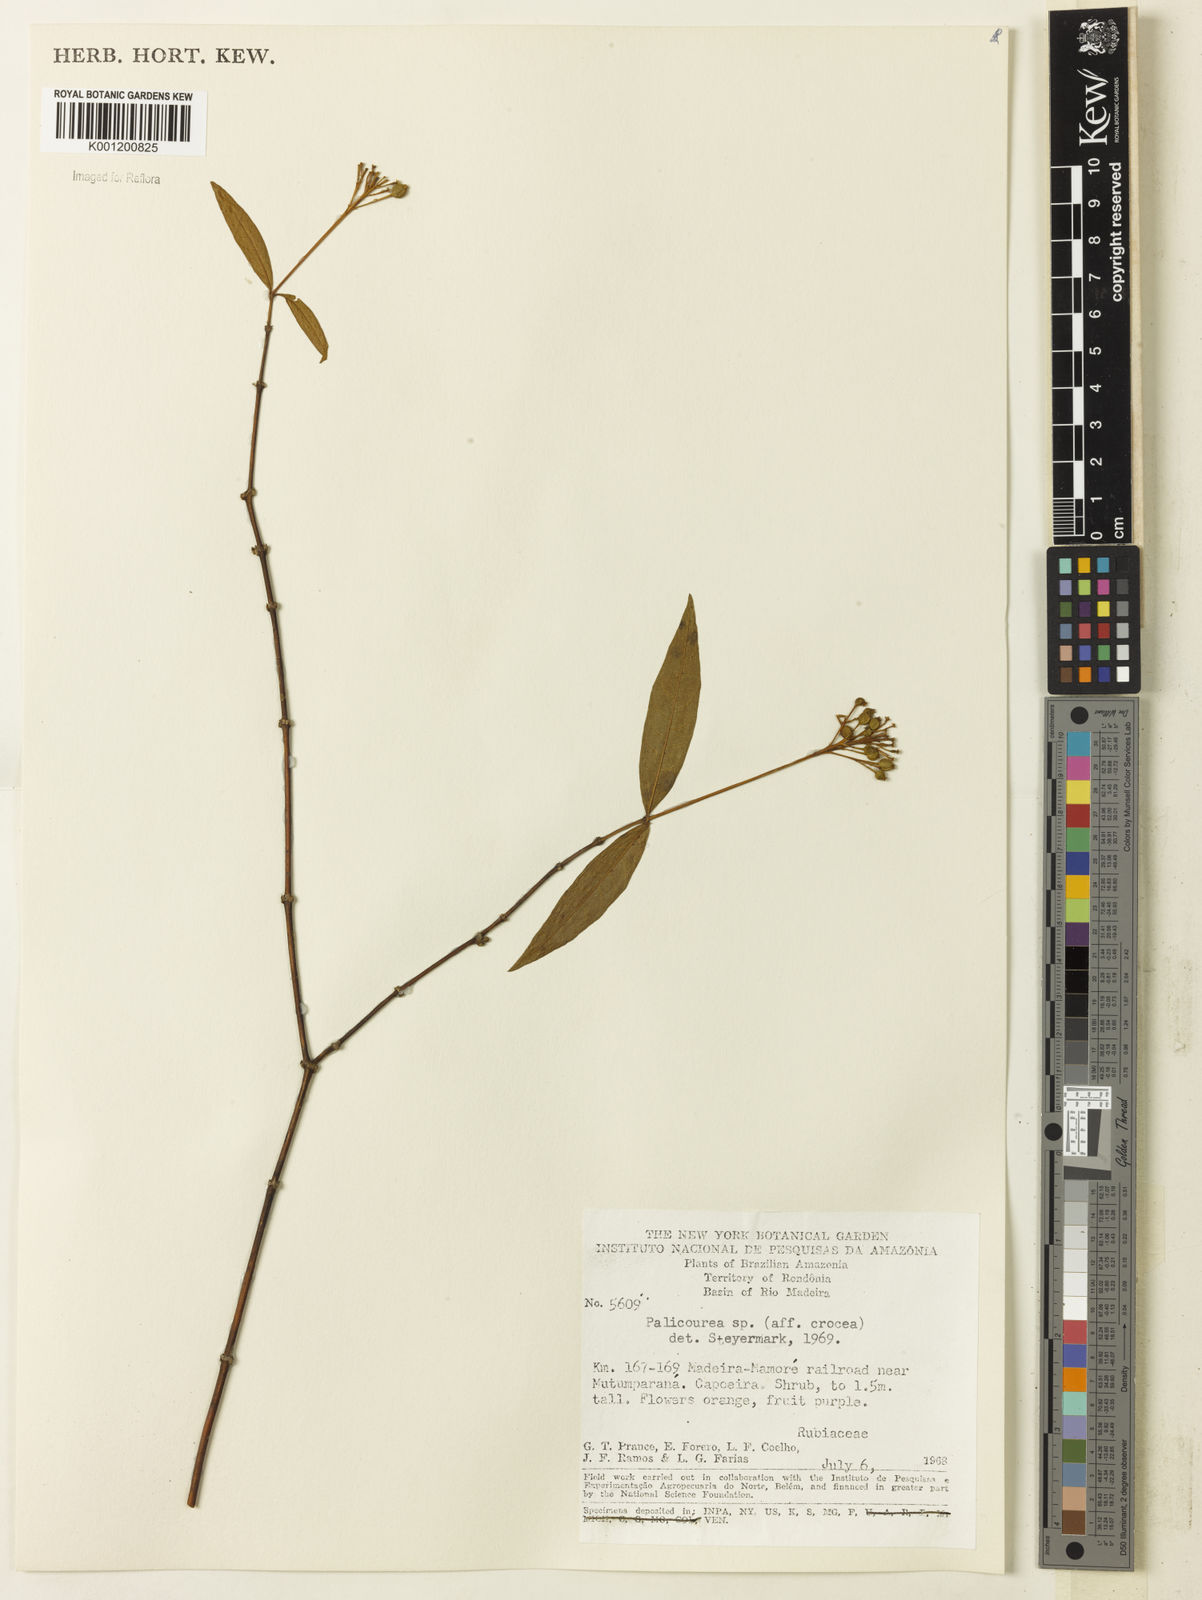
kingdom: Plantae
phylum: Tracheophyta
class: Magnoliopsida
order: Gentianales
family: Rubiaceae
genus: Palicourea
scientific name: Palicourea crocea
